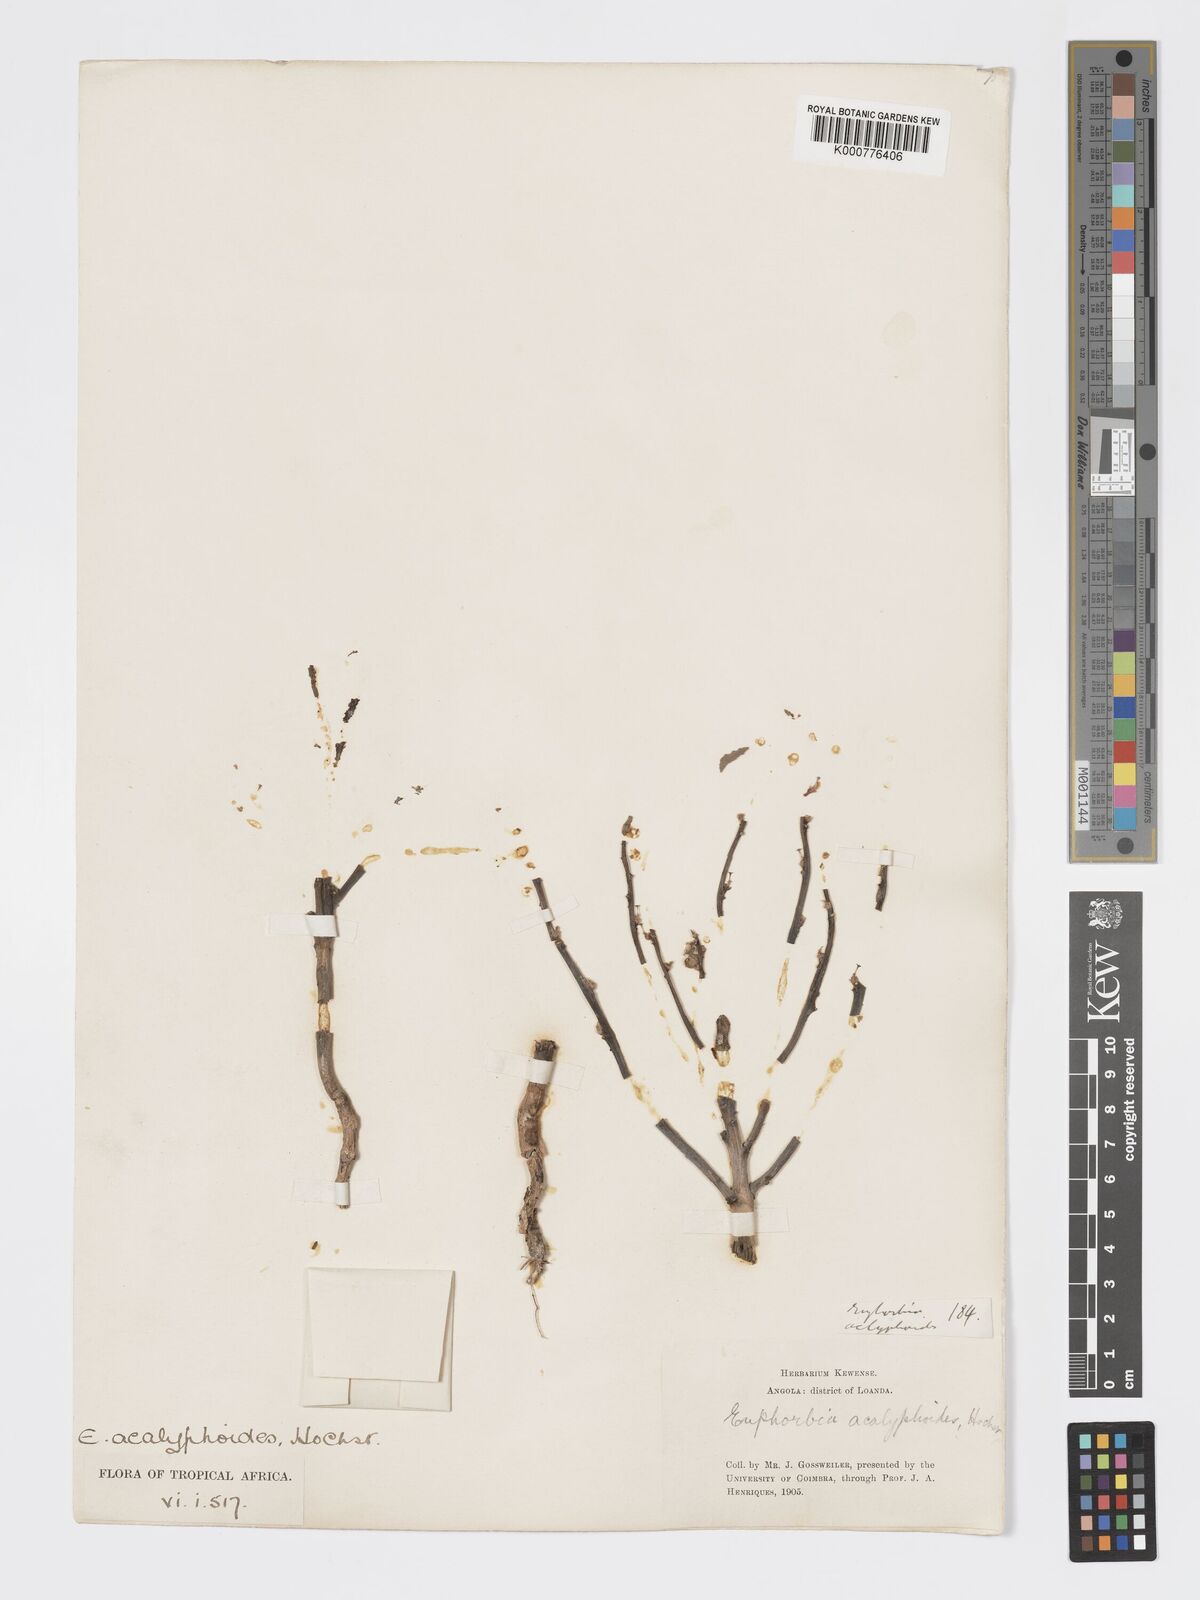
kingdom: Plantae
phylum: Tracheophyta
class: Magnoliopsida
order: Malpighiales
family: Euphorbiaceae
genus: Euphorbia
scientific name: Euphorbia acalyphoides
